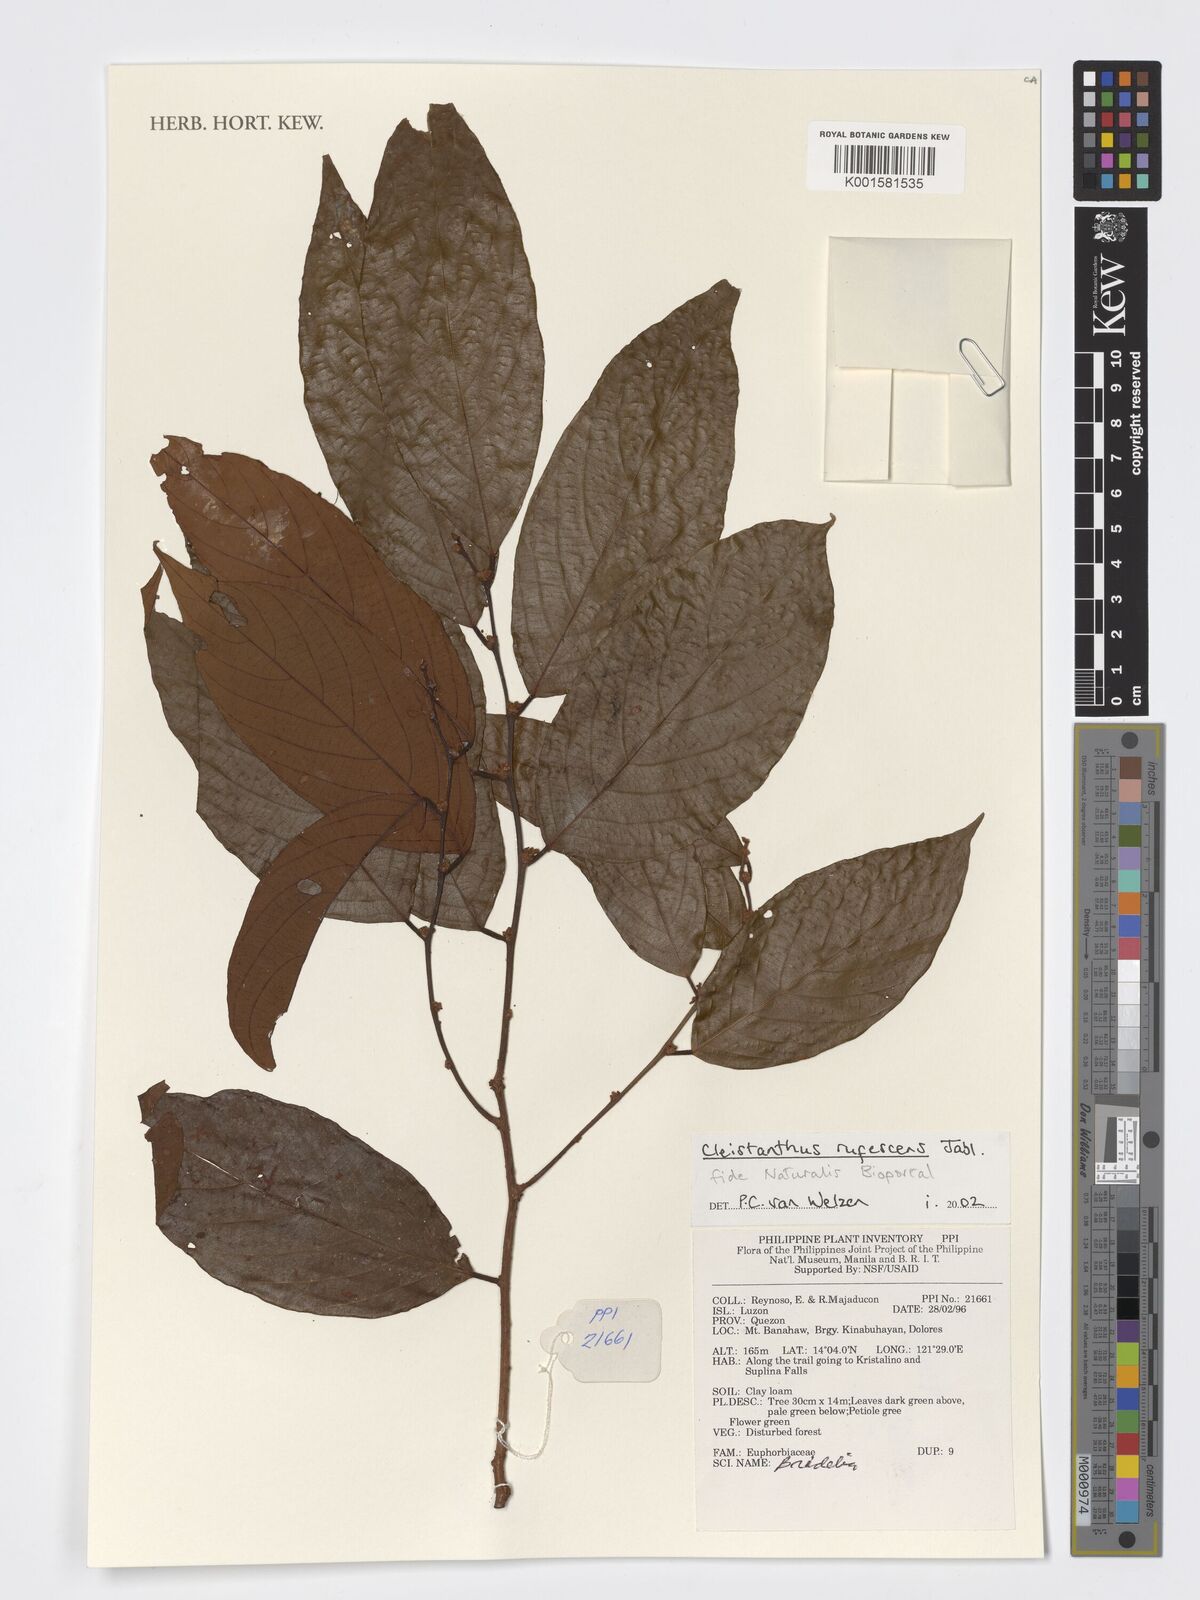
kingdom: Plantae
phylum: Tracheophyta
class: Magnoliopsida
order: Malpighiales
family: Phyllanthaceae
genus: Cleistanthus
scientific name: Cleistanthus rufescens
